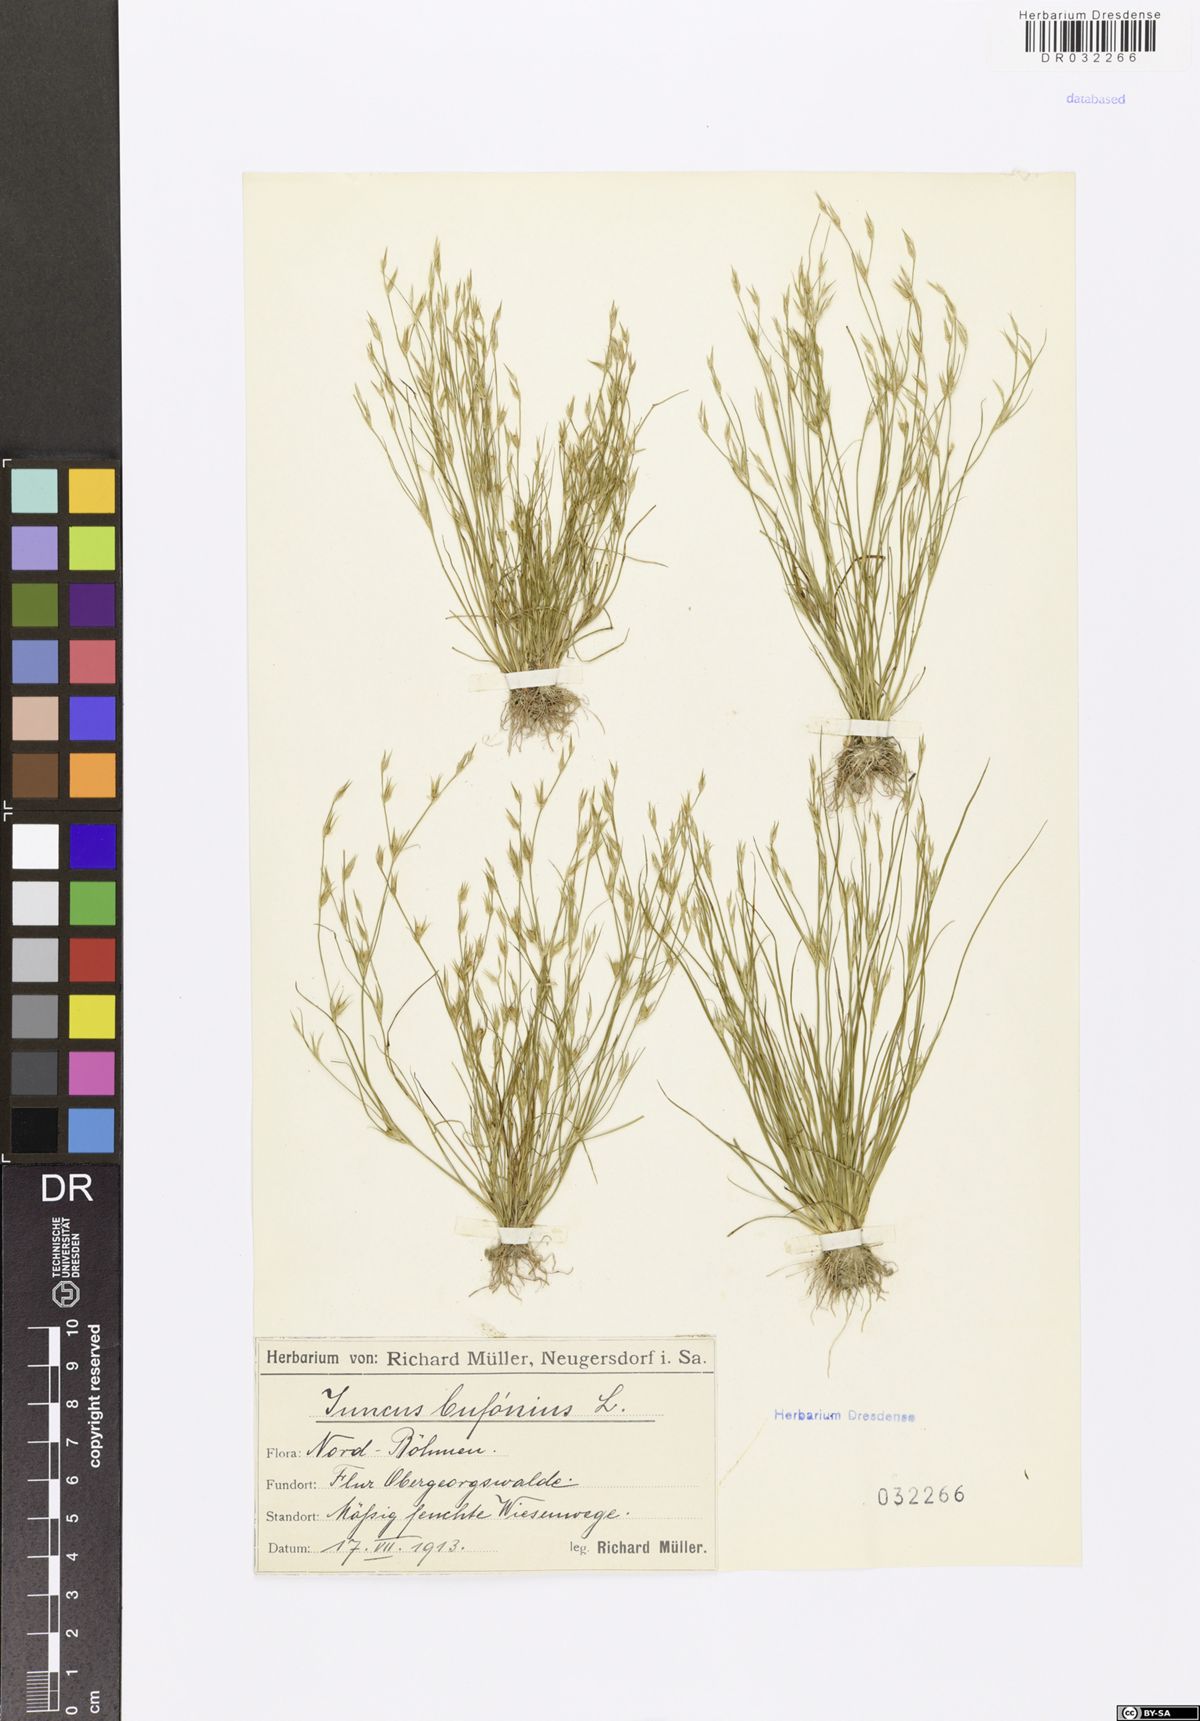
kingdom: Plantae
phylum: Tracheophyta
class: Liliopsida
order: Poales
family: Juncaceae
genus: Juncus
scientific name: Juncus bufonius
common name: Toad rush
